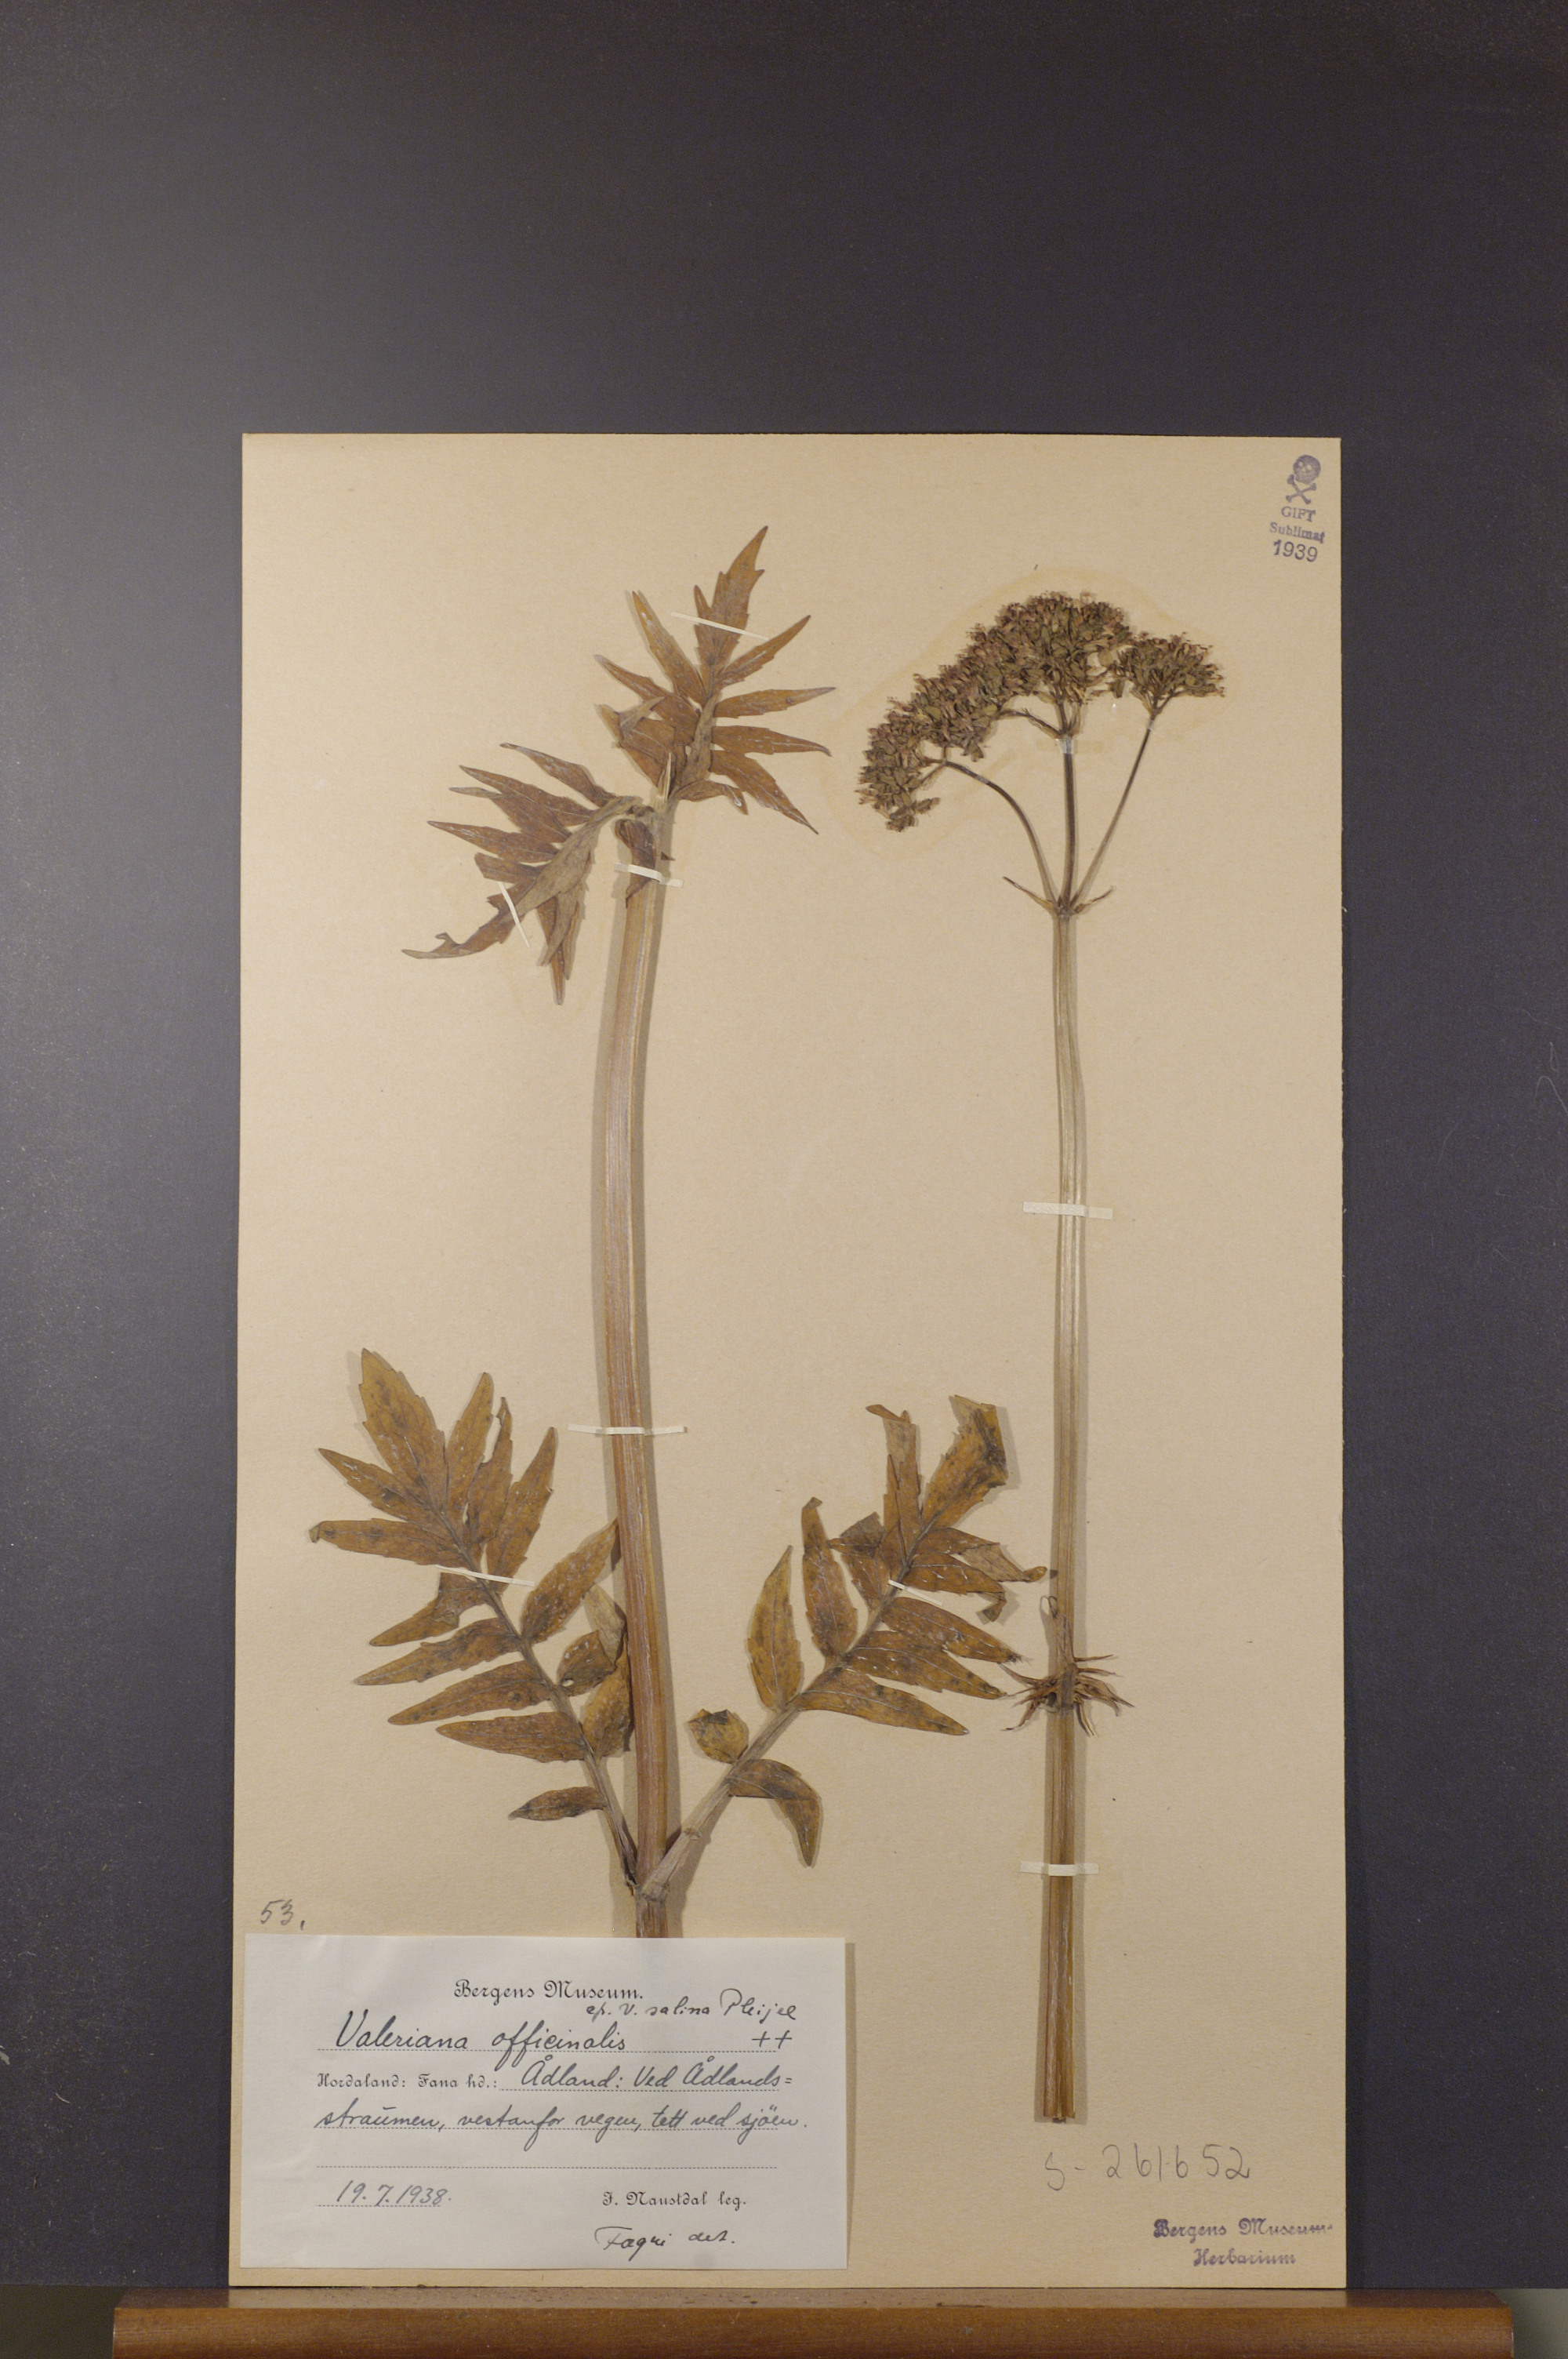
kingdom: Plantae
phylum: Tracheophyta
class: Magnoliopsida
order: Dipsacales
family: Caprifoliaceae
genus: Valeriana
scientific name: Valeriana sambucifolia
